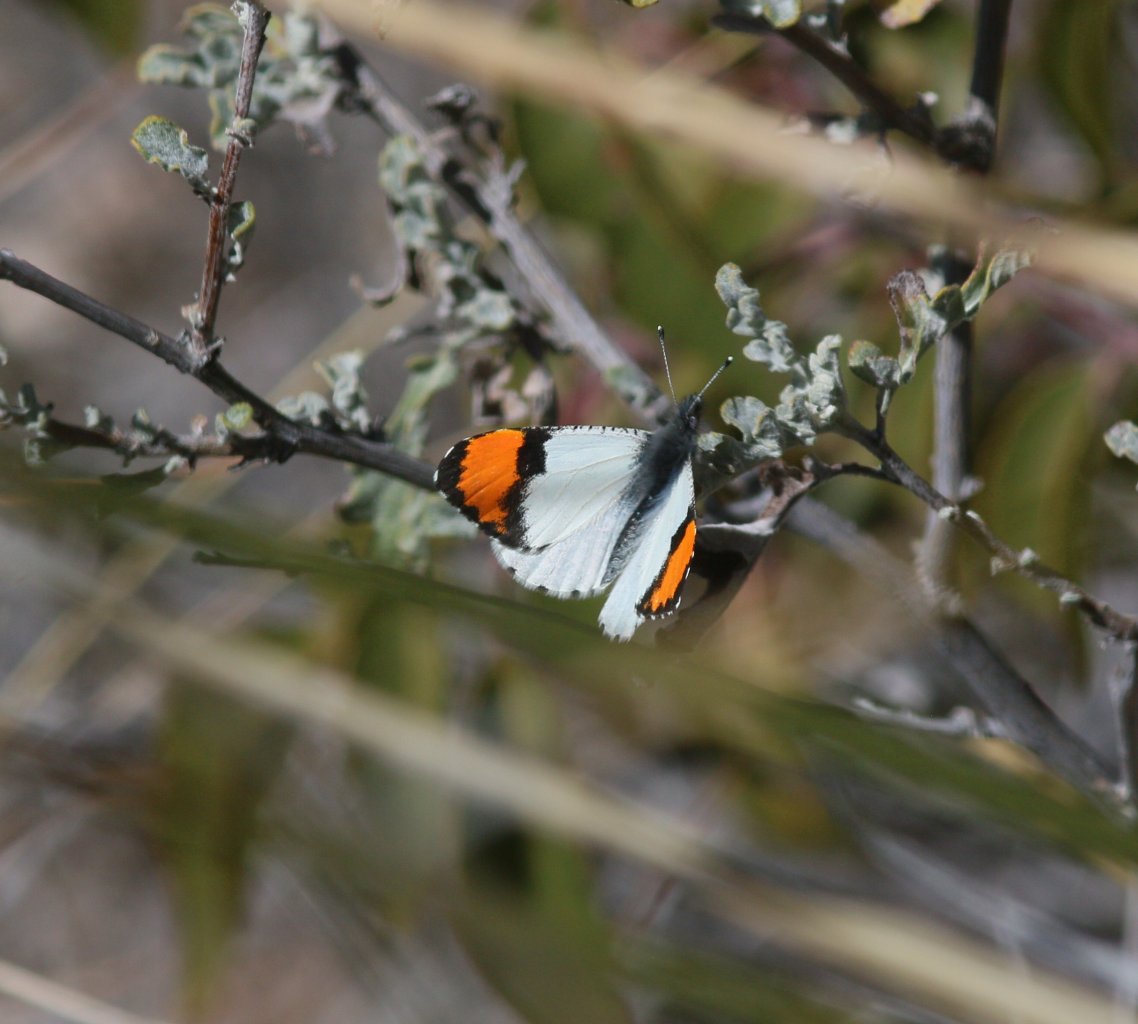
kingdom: Animalia
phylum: Arthropoda
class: Insecta
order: Lepidoptera
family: Pieridae
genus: Anthocharis
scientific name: Anthocharis sara
